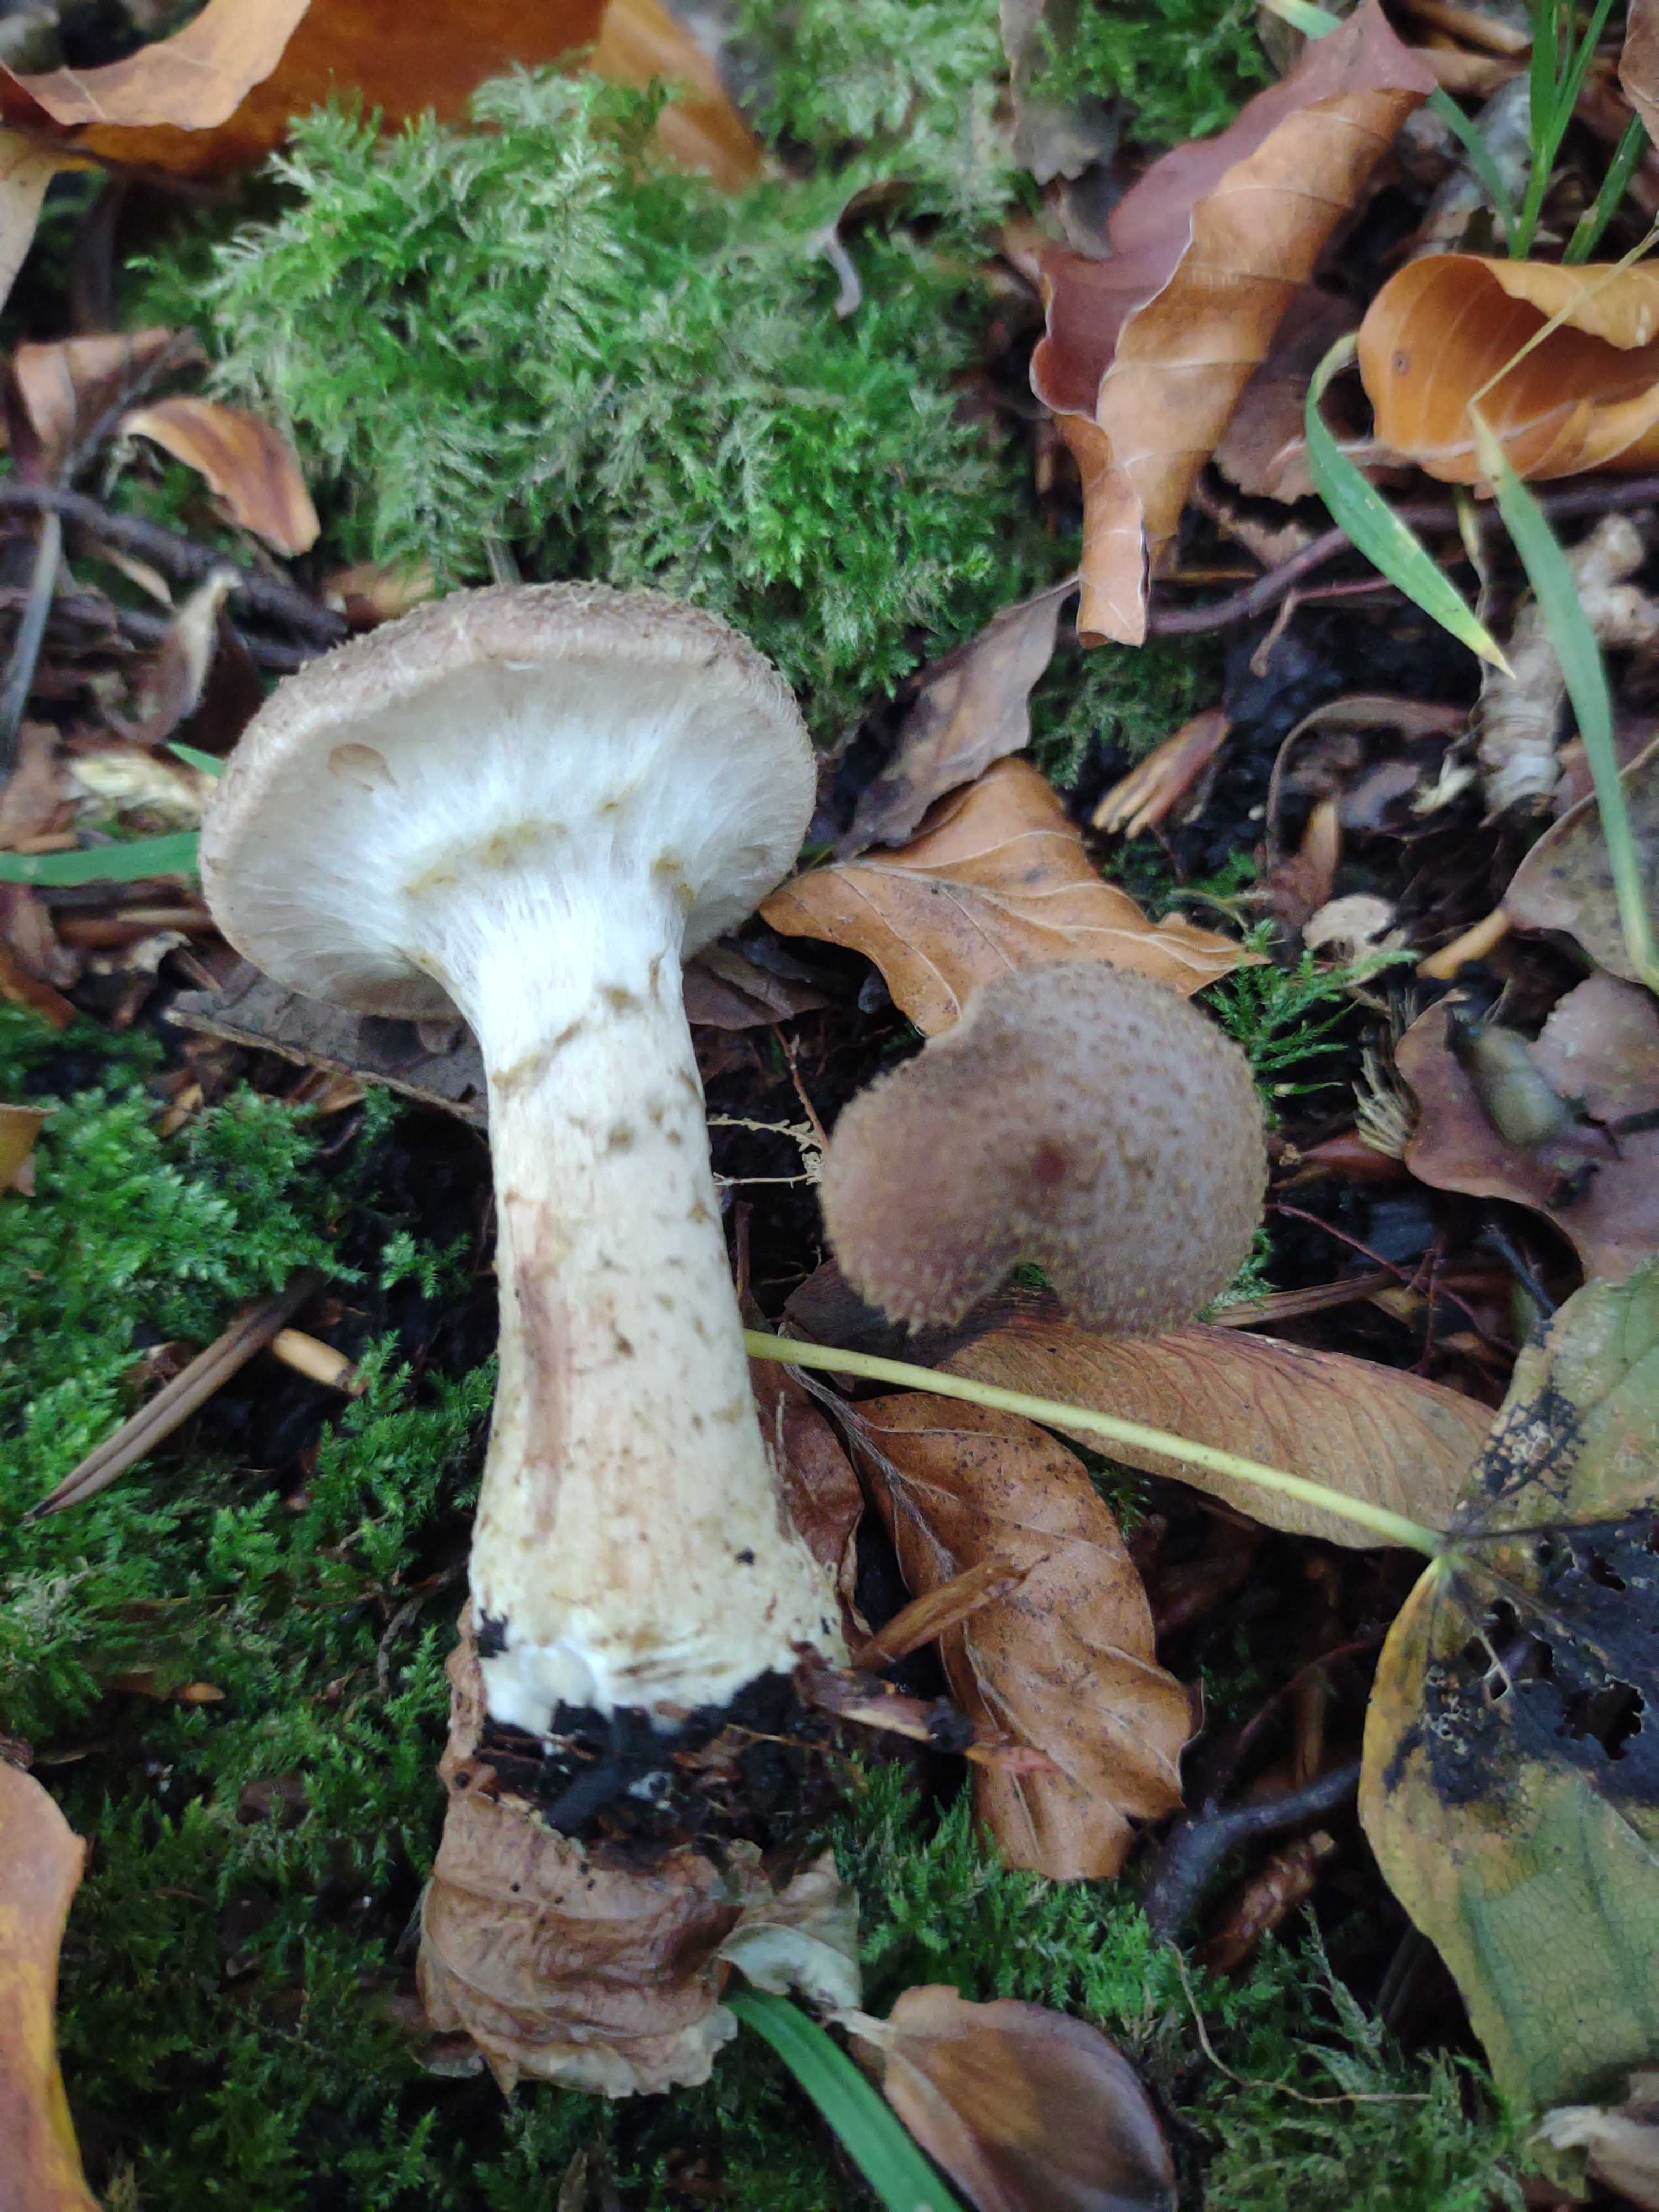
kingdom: Fungi
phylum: Basidiomycota
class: Agaricomycetes
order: Agaricales
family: Physalacriaceae
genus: Armillaria
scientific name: Armillaria
